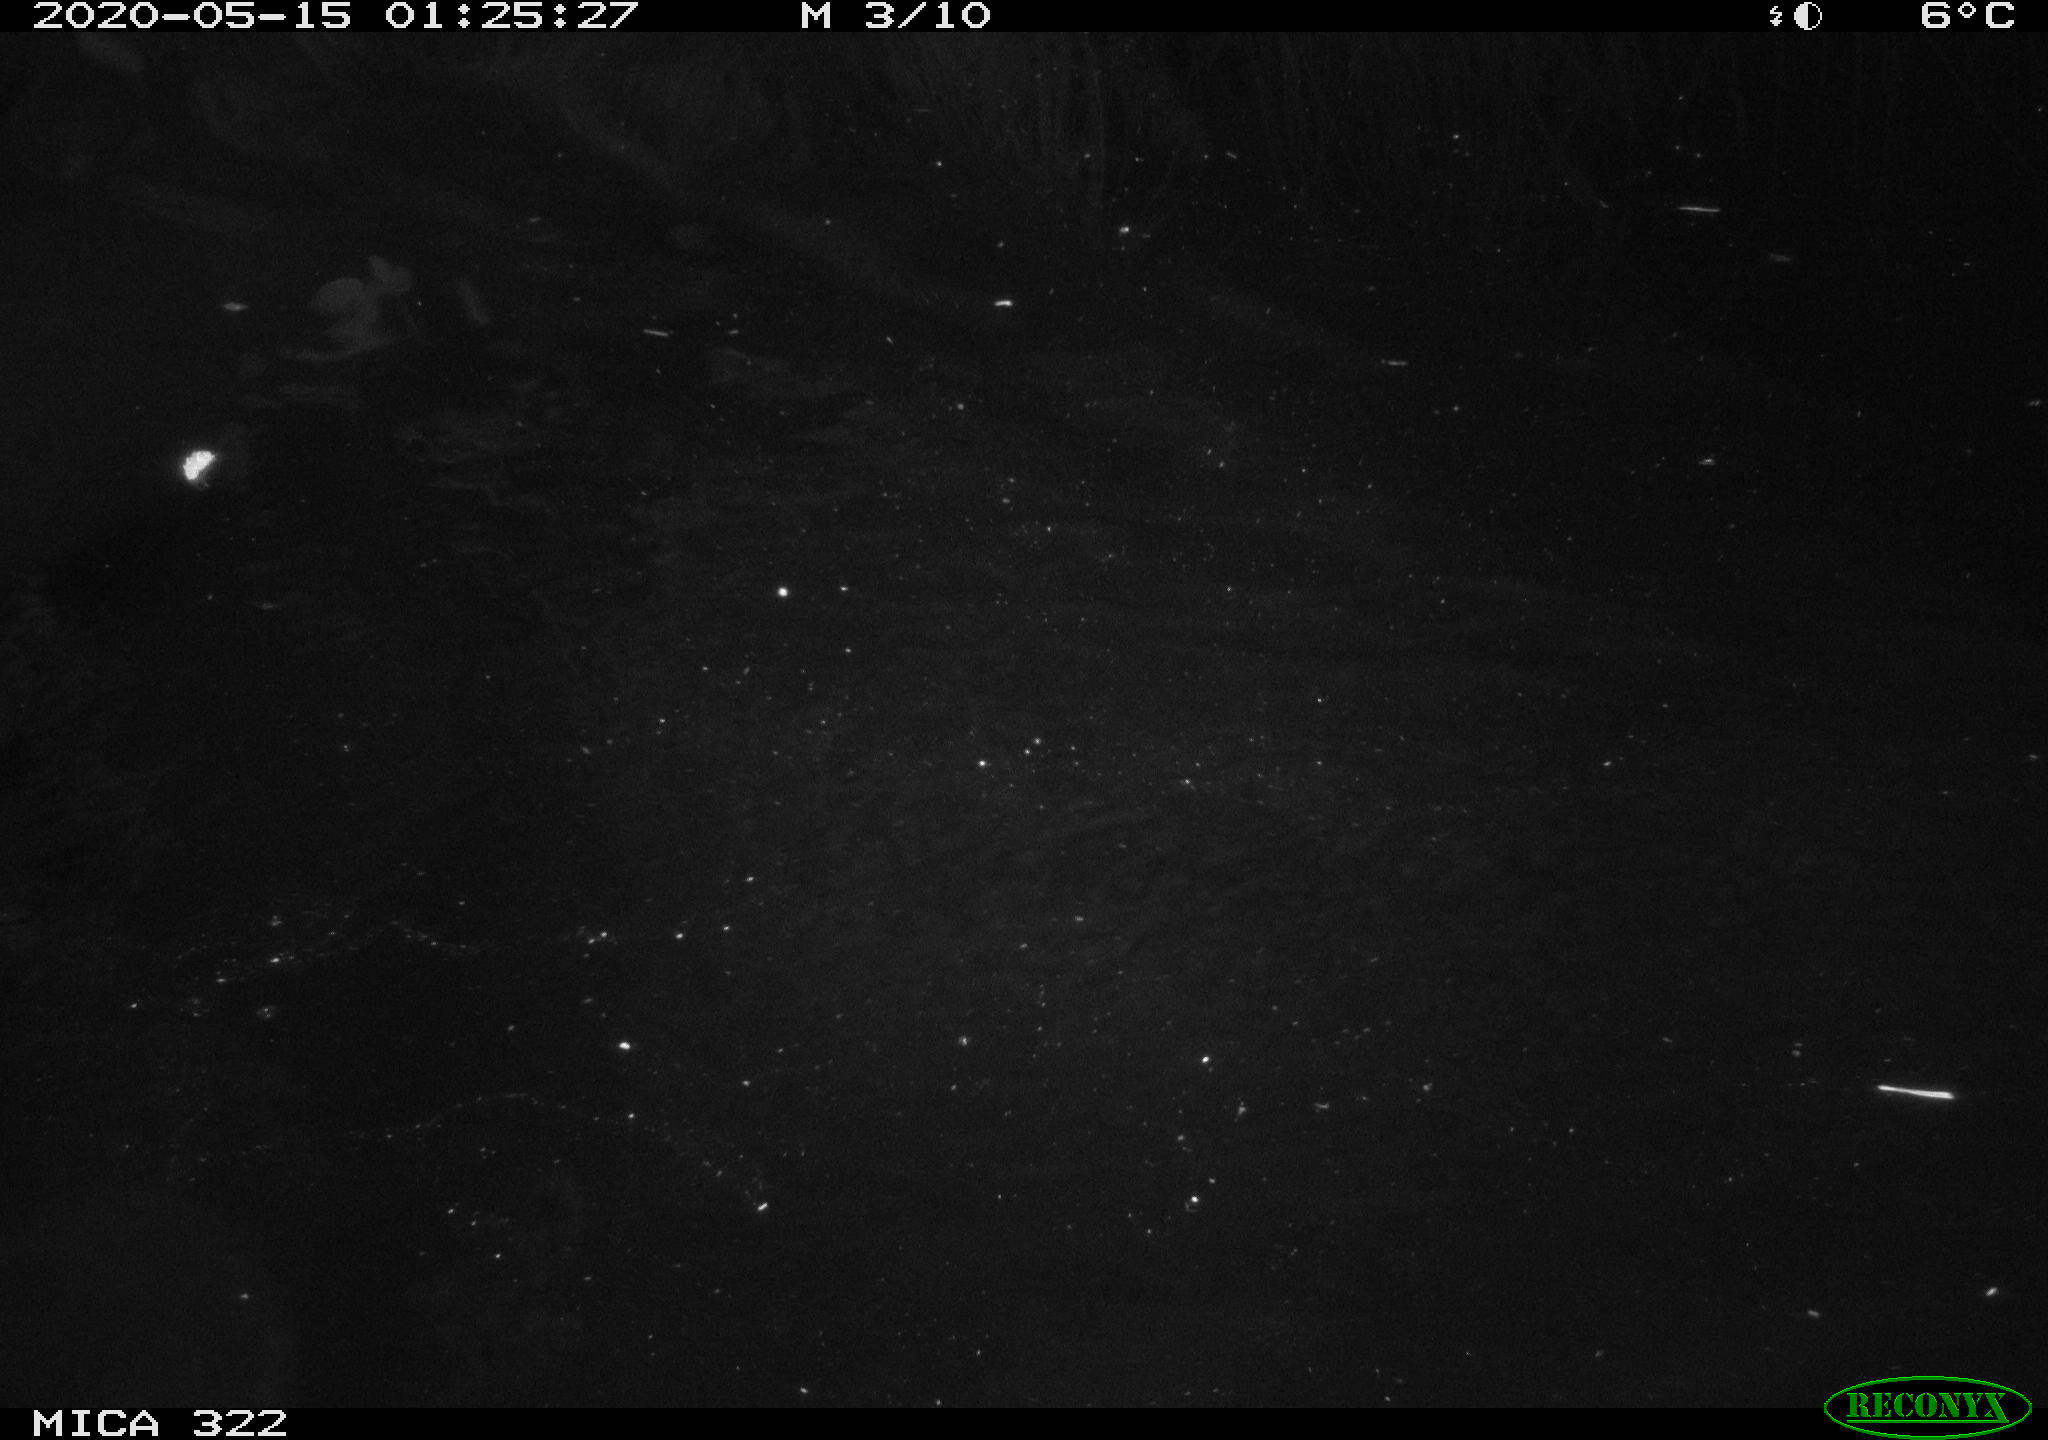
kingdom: Animalia
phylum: Chordata
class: Aves
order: Anseriformes
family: Anatidae
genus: Anas
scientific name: Anas platyrhynchos
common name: Mallard
